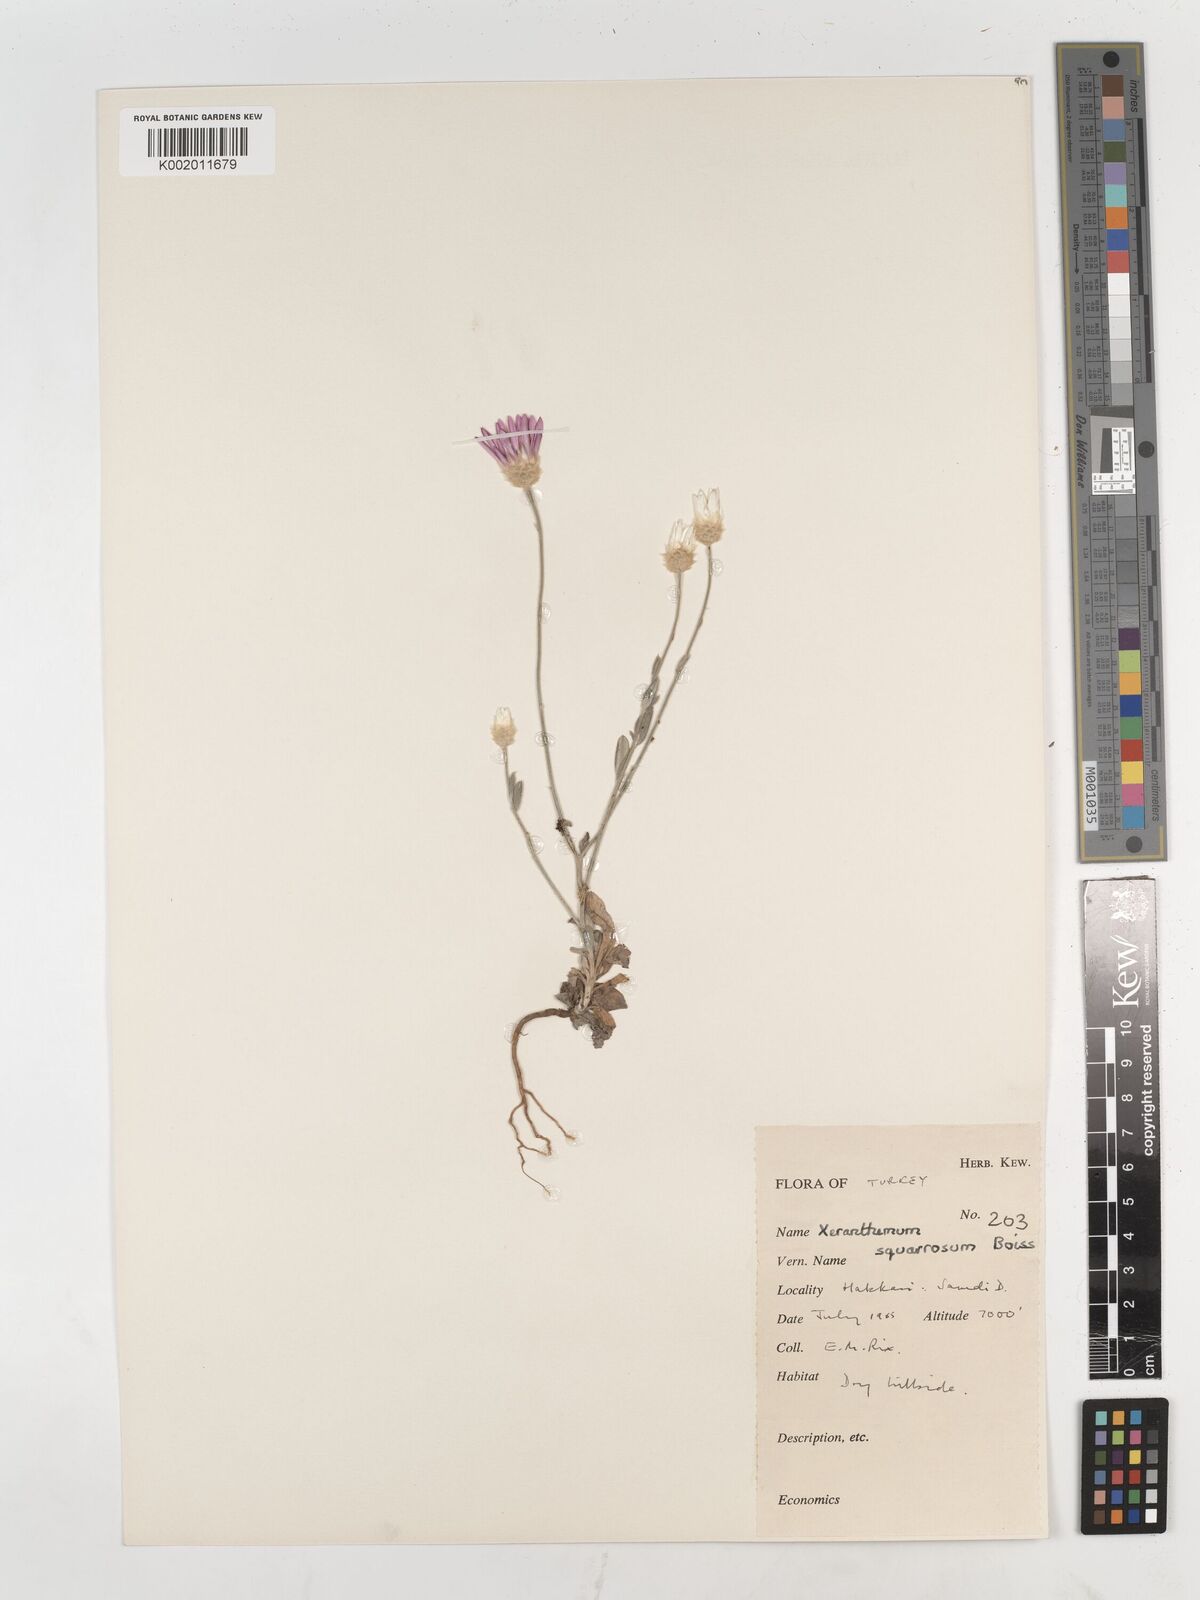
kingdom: Plantae
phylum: Tracheophyta
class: Magnoliopsida
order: Asterales
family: Asteraceae
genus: Xeranthemum
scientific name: Xeranthemum squarrosum
